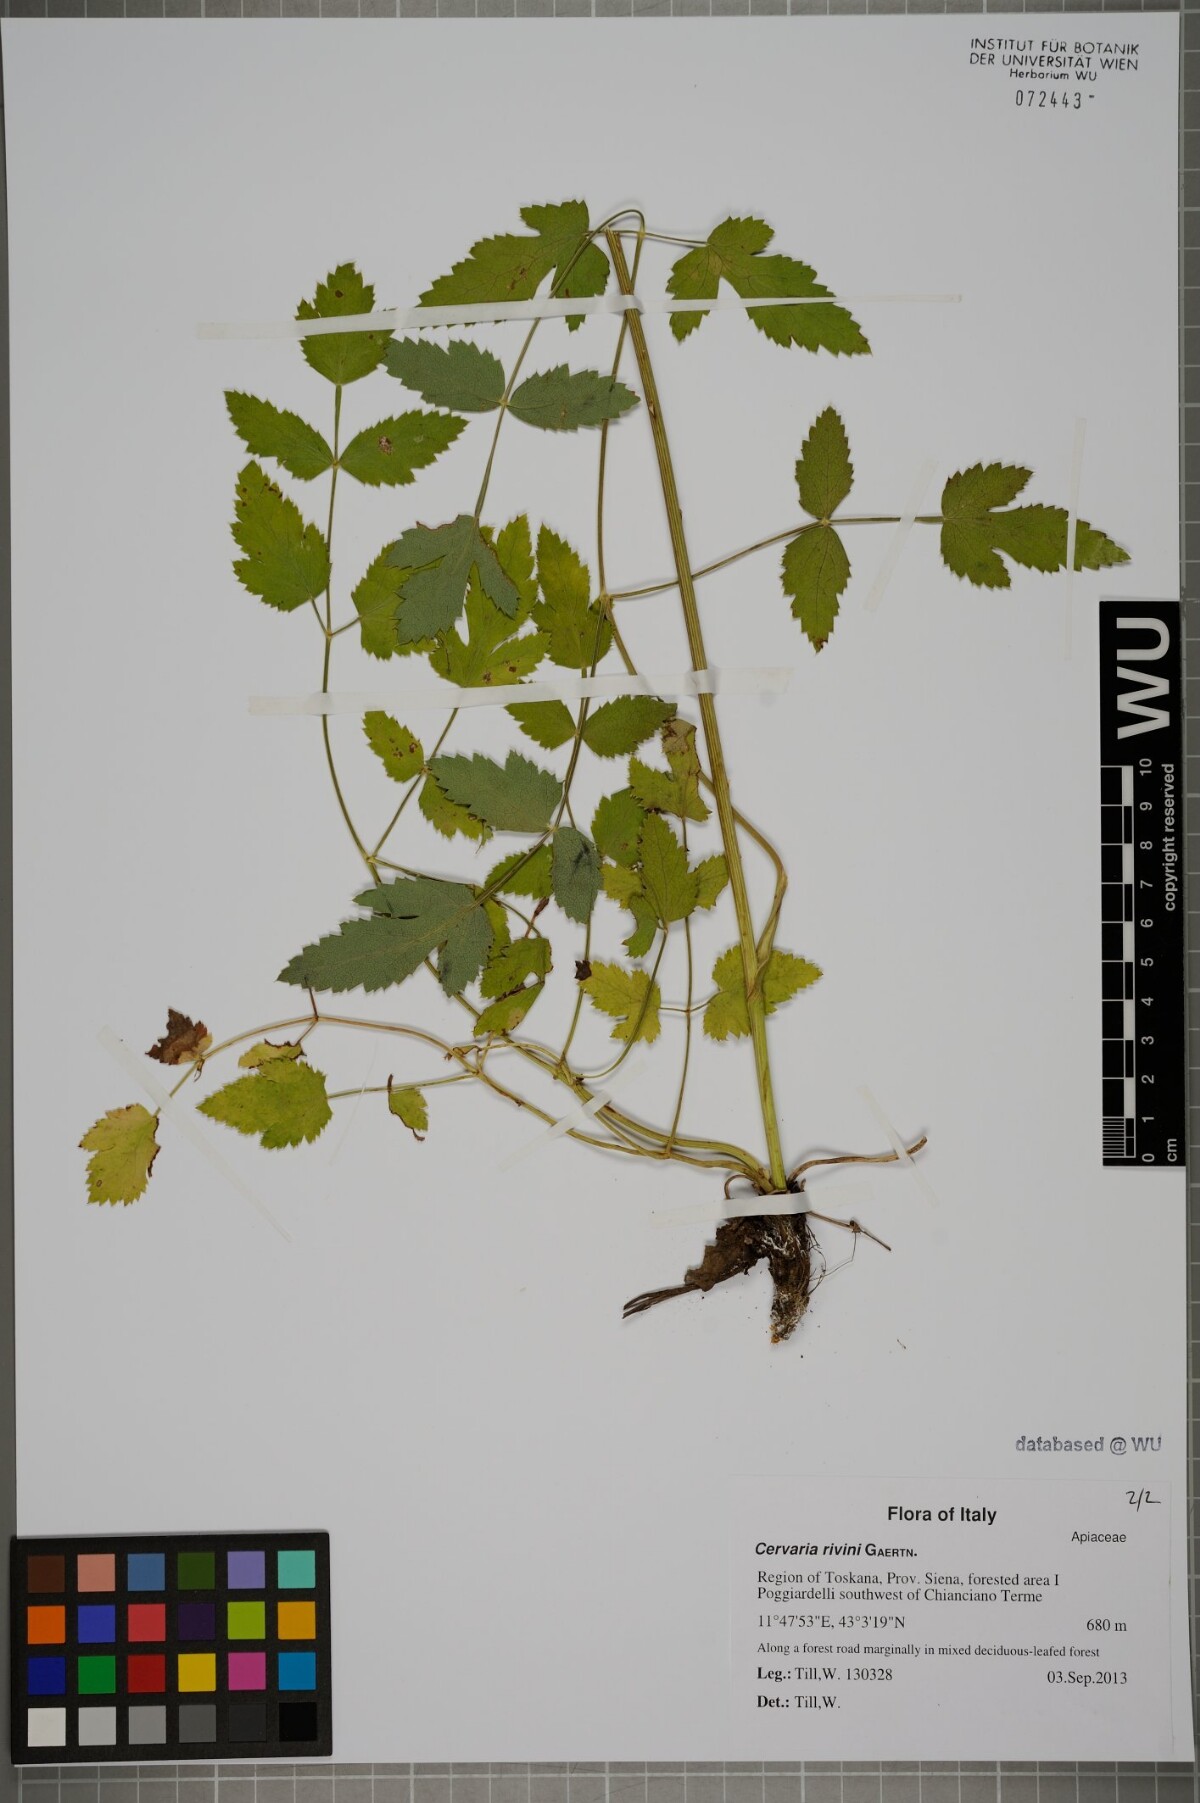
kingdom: Plantae
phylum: Tracheophyta
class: Magnoliopsida
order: Apiales
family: Apiaceae
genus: Cervaria
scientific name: Cervaria rivini
